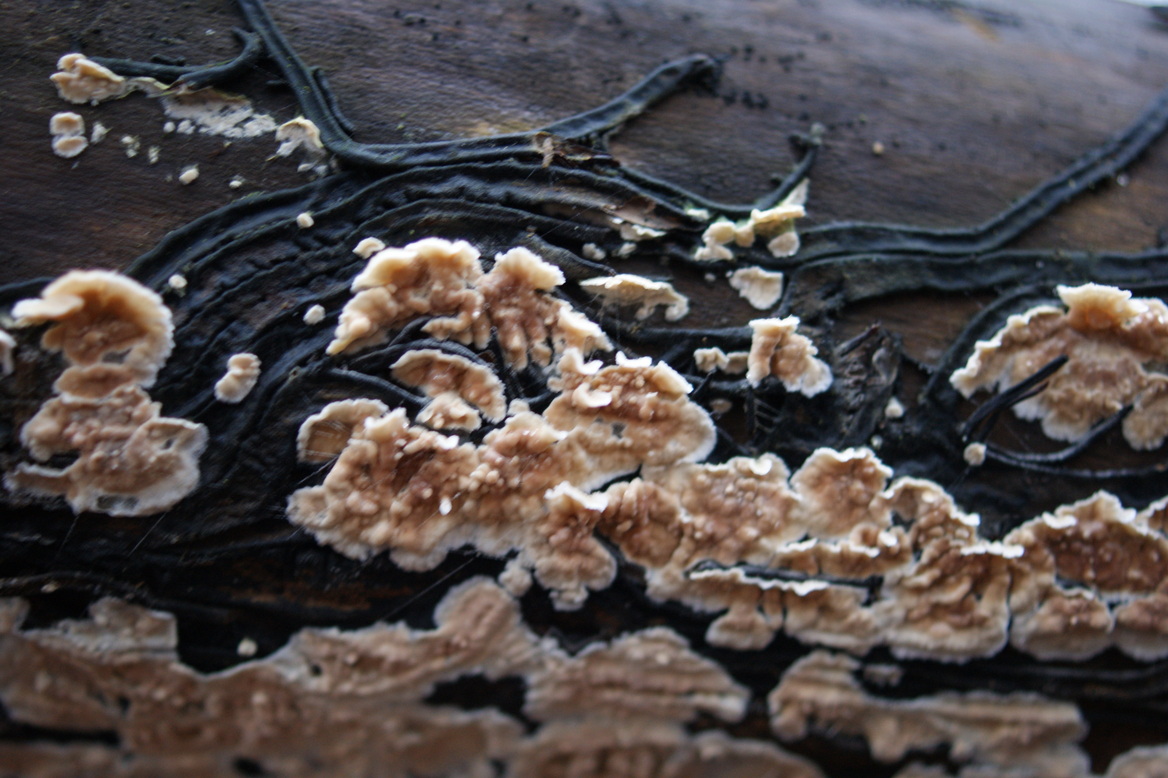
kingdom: Fungi
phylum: Basidiomycota
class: Agaricomycetes
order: Agaricales
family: Physalacriaceae
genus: Cylindrobasidium
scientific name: Cylindrobasidium evolvens
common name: sprækkehinde
